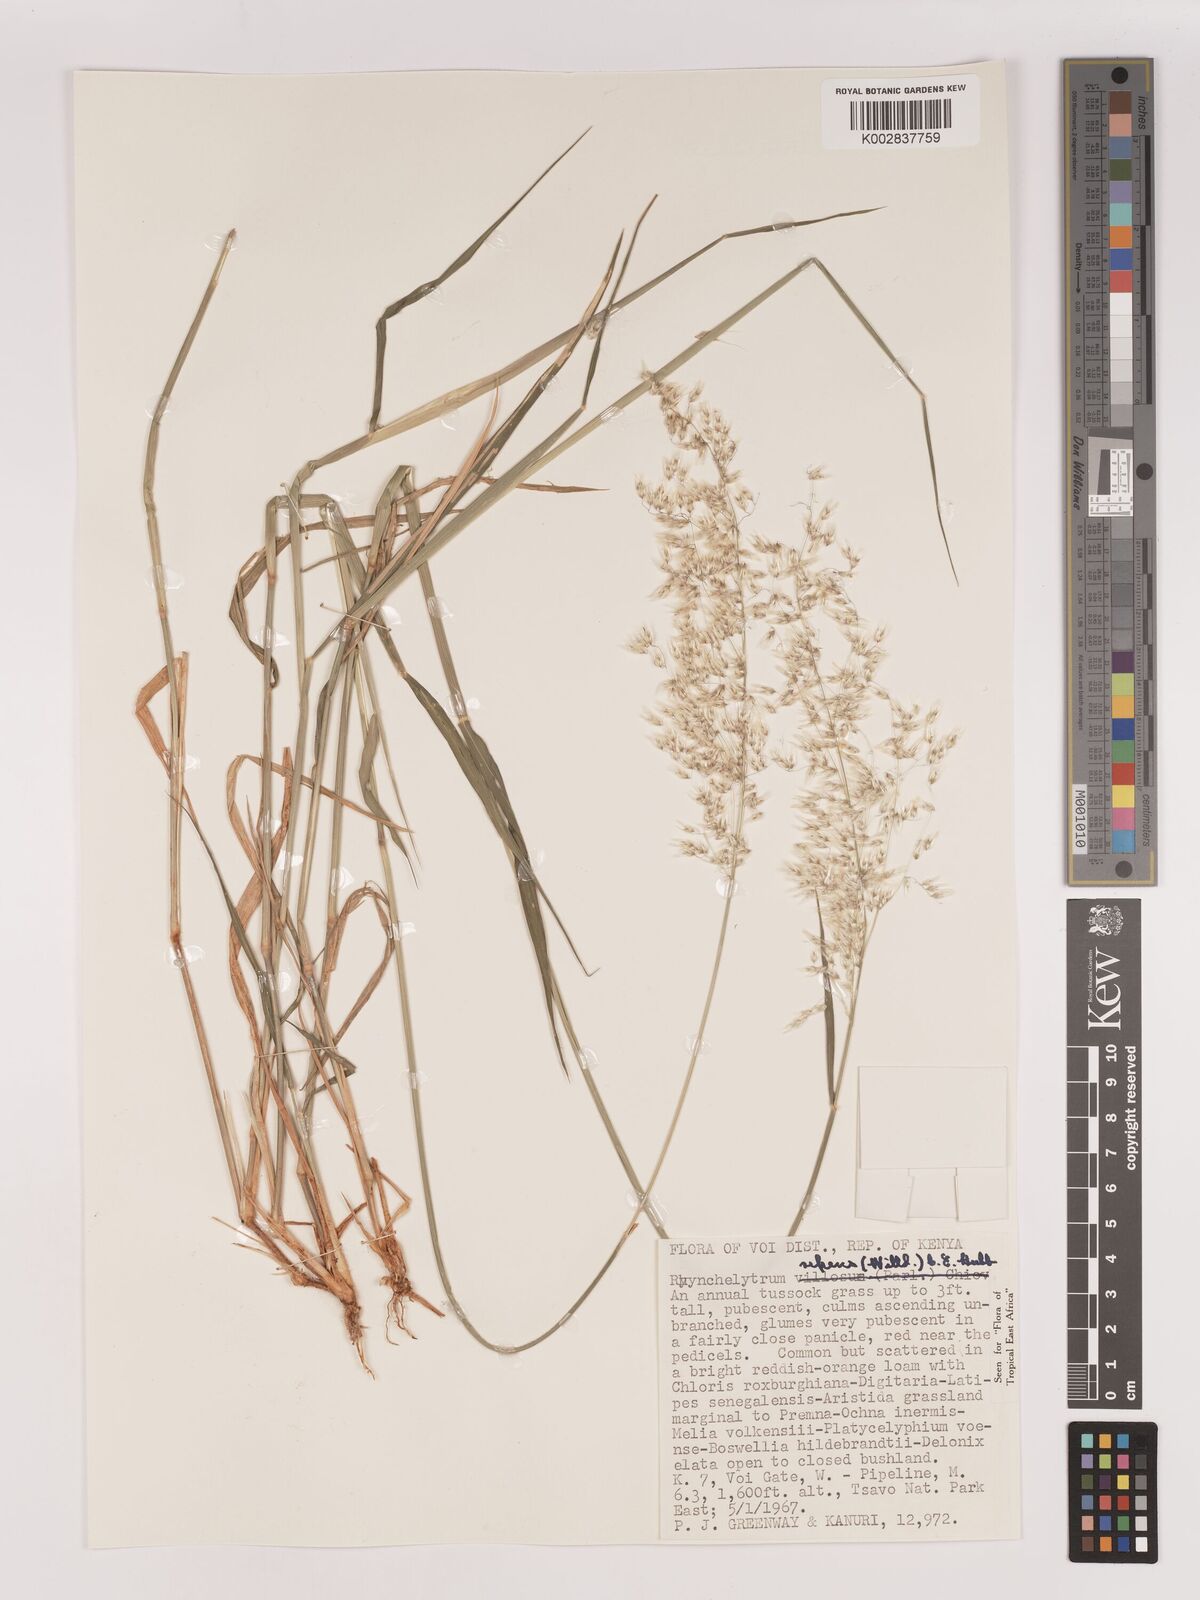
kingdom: Plantae
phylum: Tracheophyta
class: Liliopsida
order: Poales
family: Poaceae
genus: Melinis
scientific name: Melinis repens
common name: Rose natal grass
